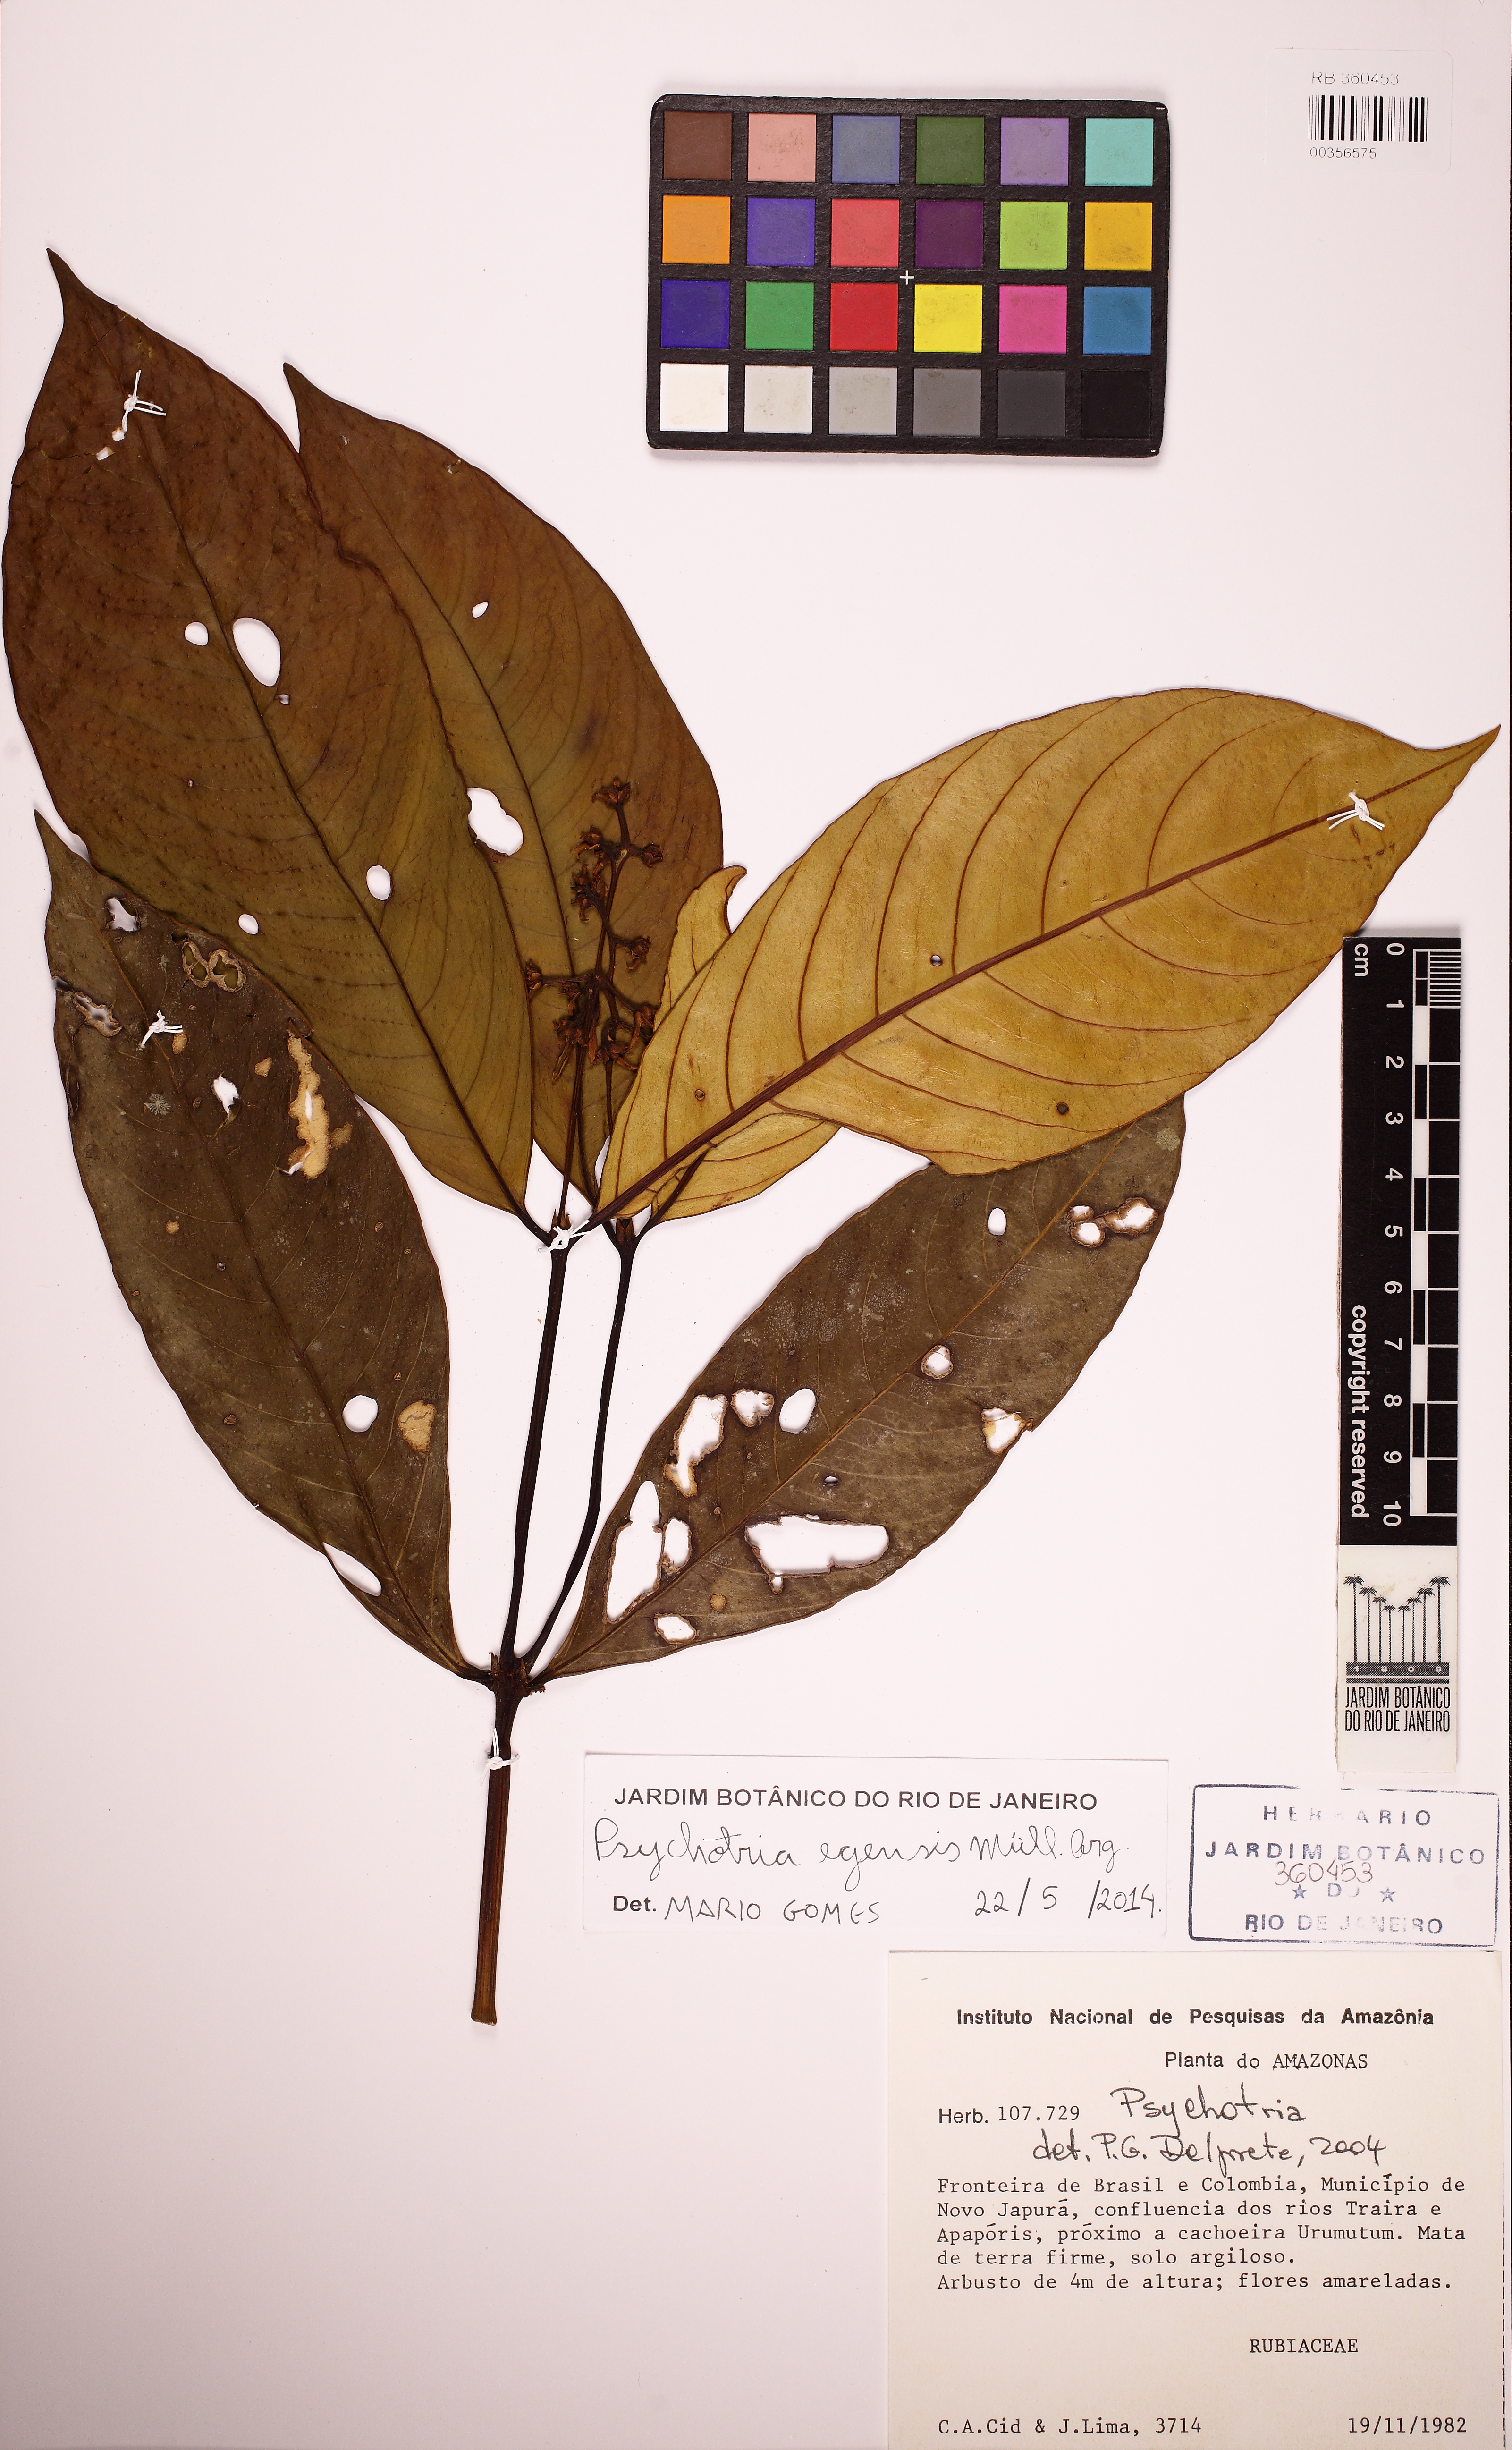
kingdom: Plantae
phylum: Tracheophyta
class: Magnoliopsida
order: Gentianales
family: Rubiaceae
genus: Palicourea
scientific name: Palicourea egensis
